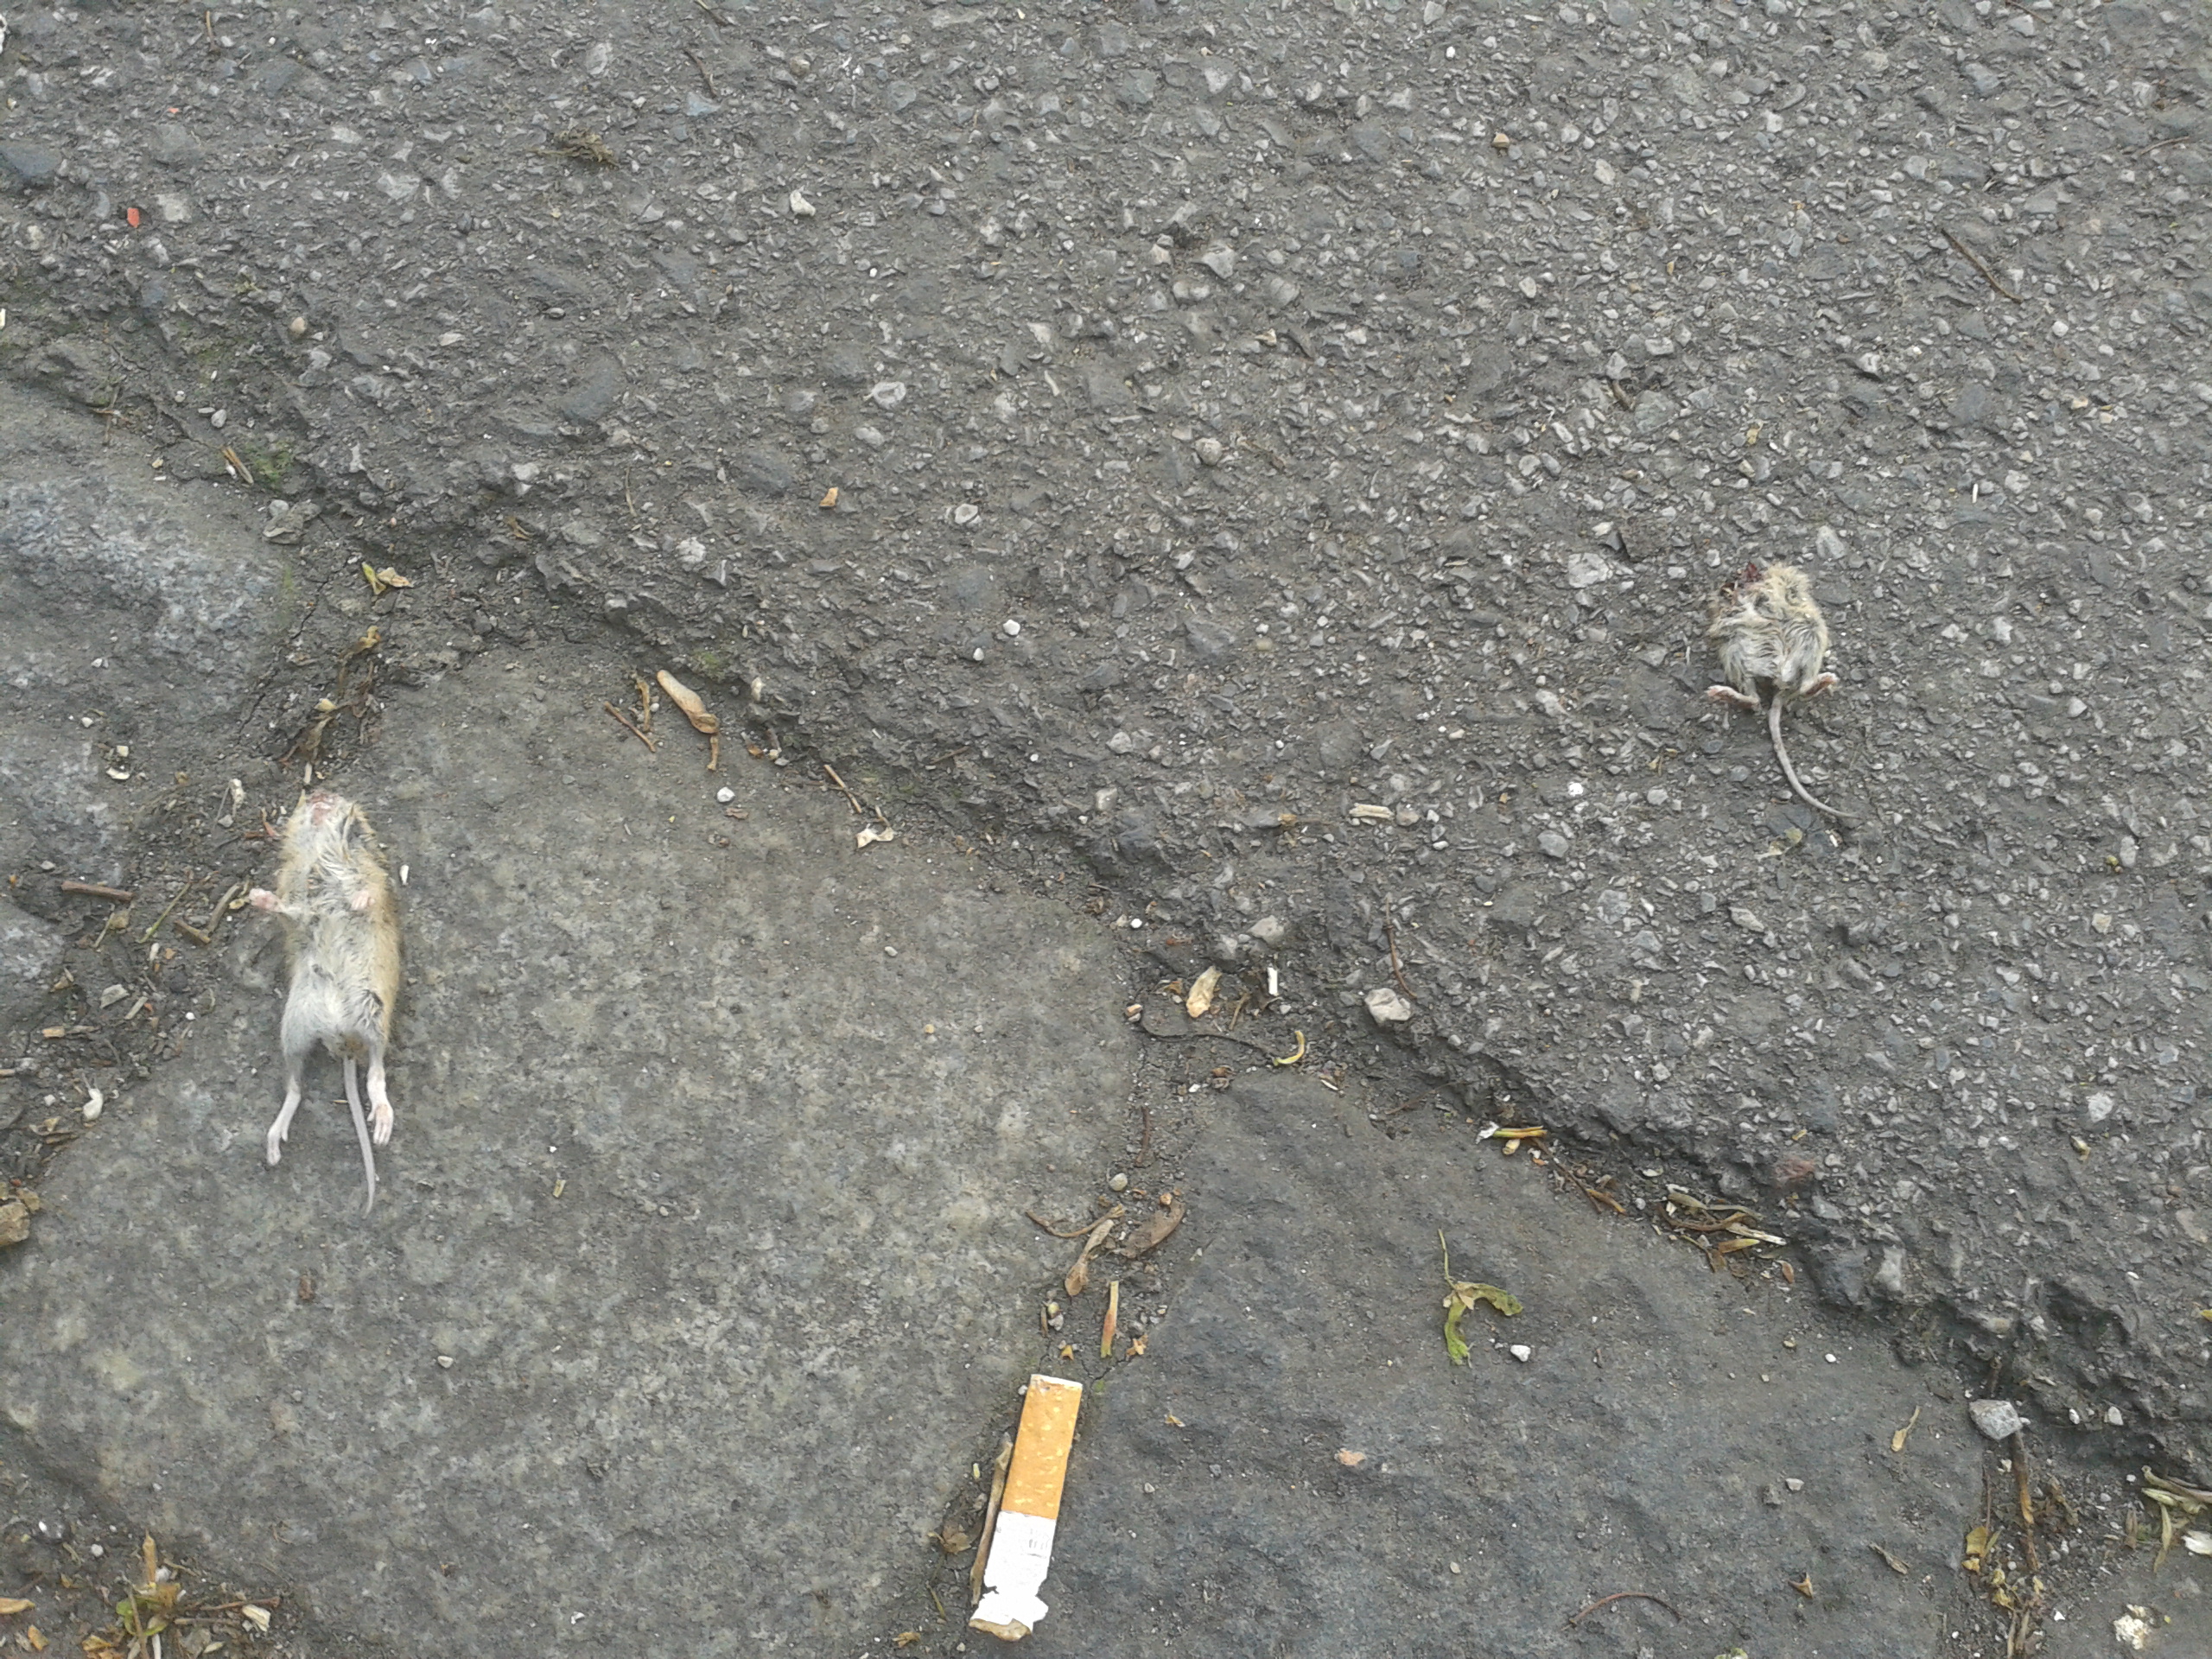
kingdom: Animalia
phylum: Chordata
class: Mammalia
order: Rodentia
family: Muridae
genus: Apodemus
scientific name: Apodemus
